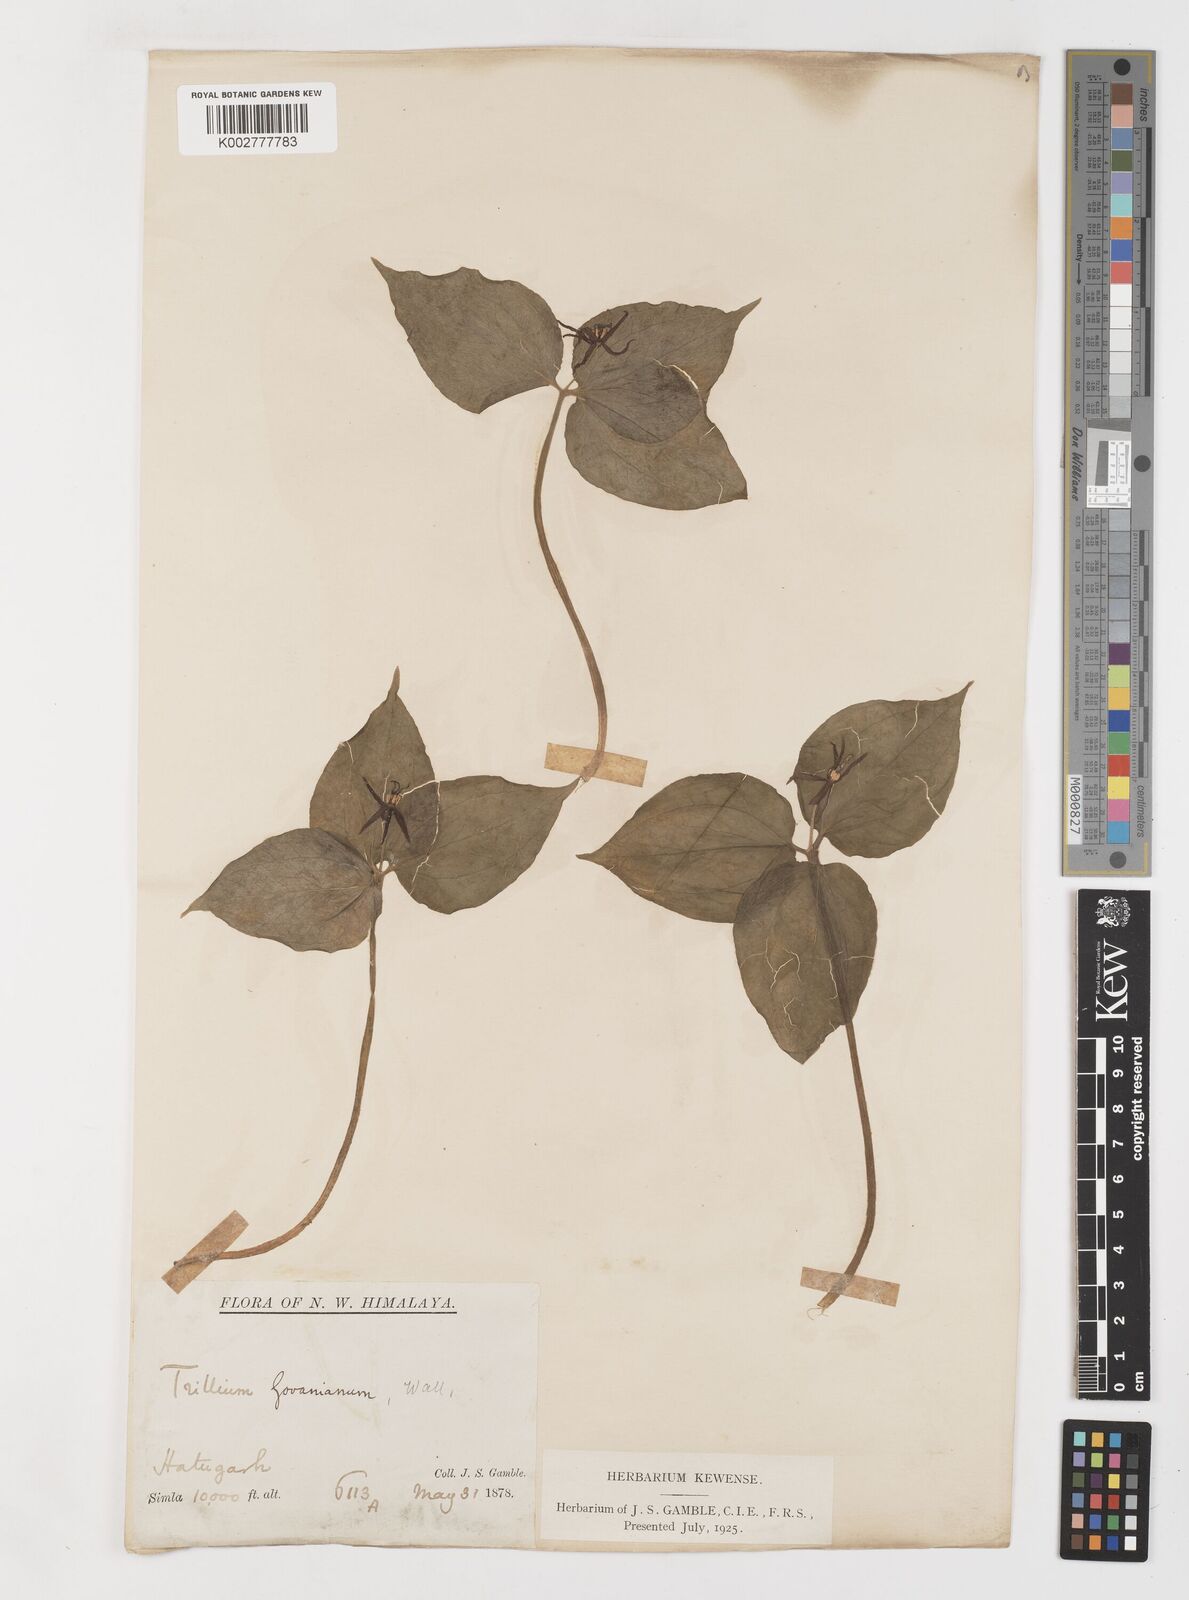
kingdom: Plantae
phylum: Tracheophyta
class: Liliopsida
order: Liliales
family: Melanthiaceae
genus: Trillium
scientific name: Trillium govanianum
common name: Himalayan trillium
